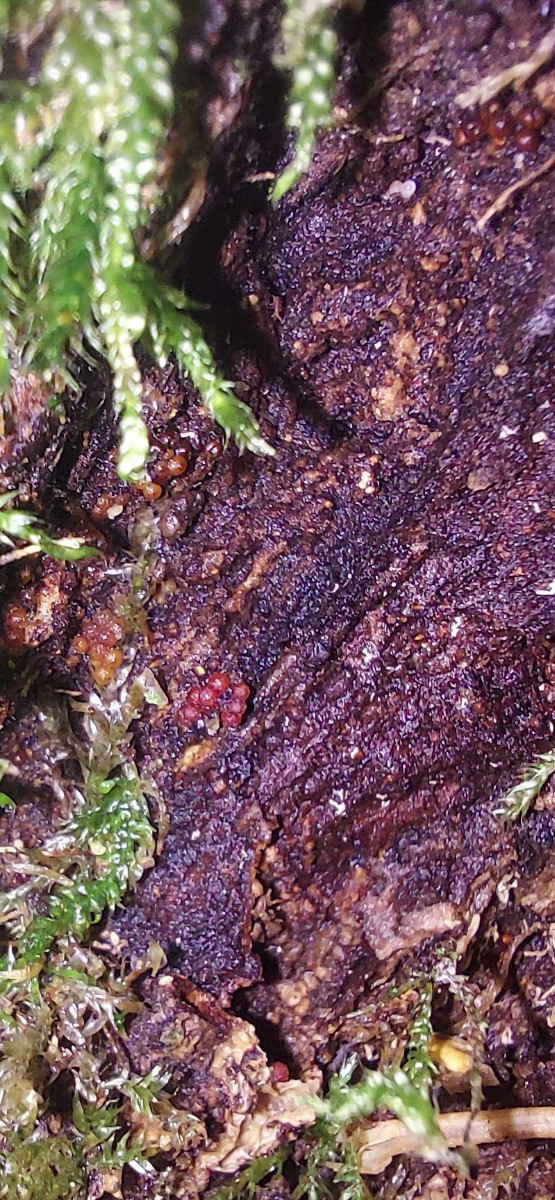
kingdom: Fungi
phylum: Ascomycota
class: Sordariomycetes
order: Hypocreales
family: Nectriaceae
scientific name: Nectriaceae
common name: cinnobersvampfamilien
